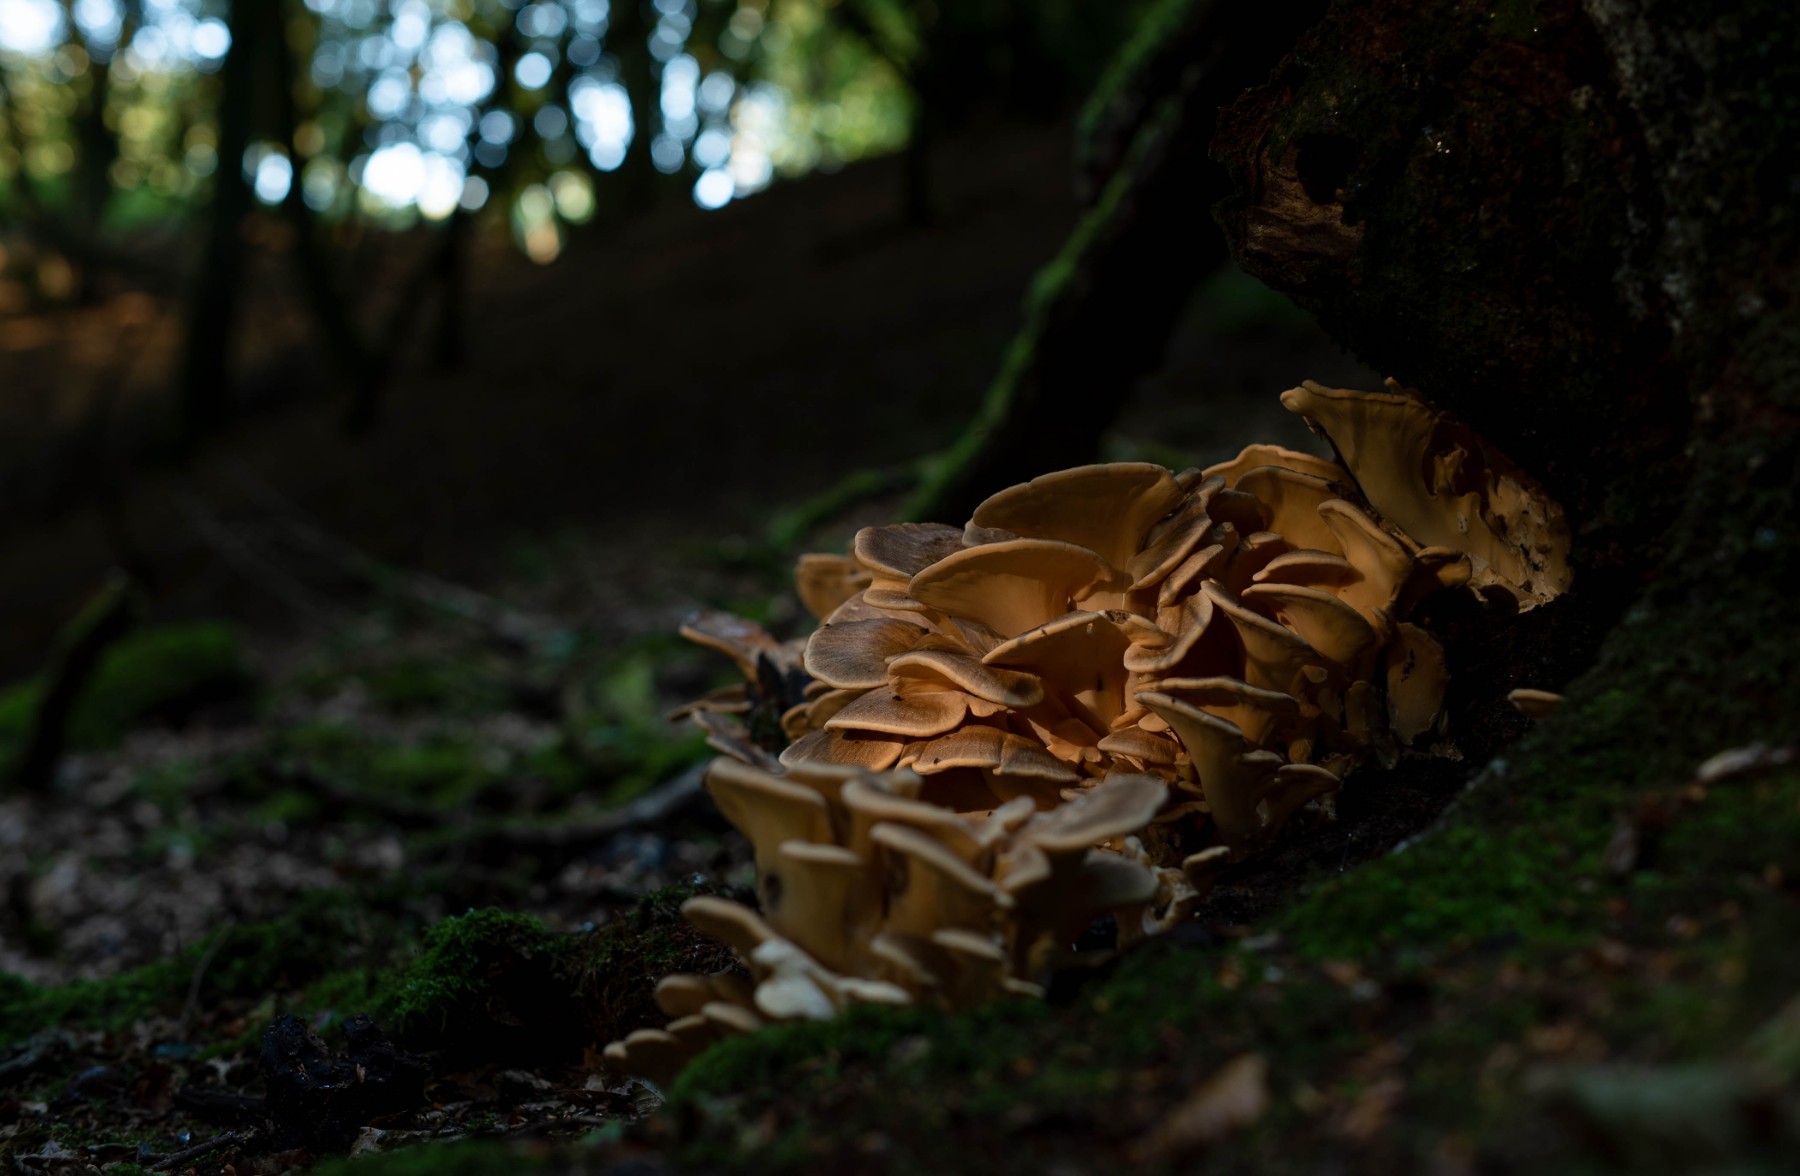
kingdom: Fungi
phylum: Basidiomycota
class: Agaricomycetes
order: Polyporales
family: Meripilaceae
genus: Meripilus
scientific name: Meripilus giganteus
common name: kæmpeporesvamp
